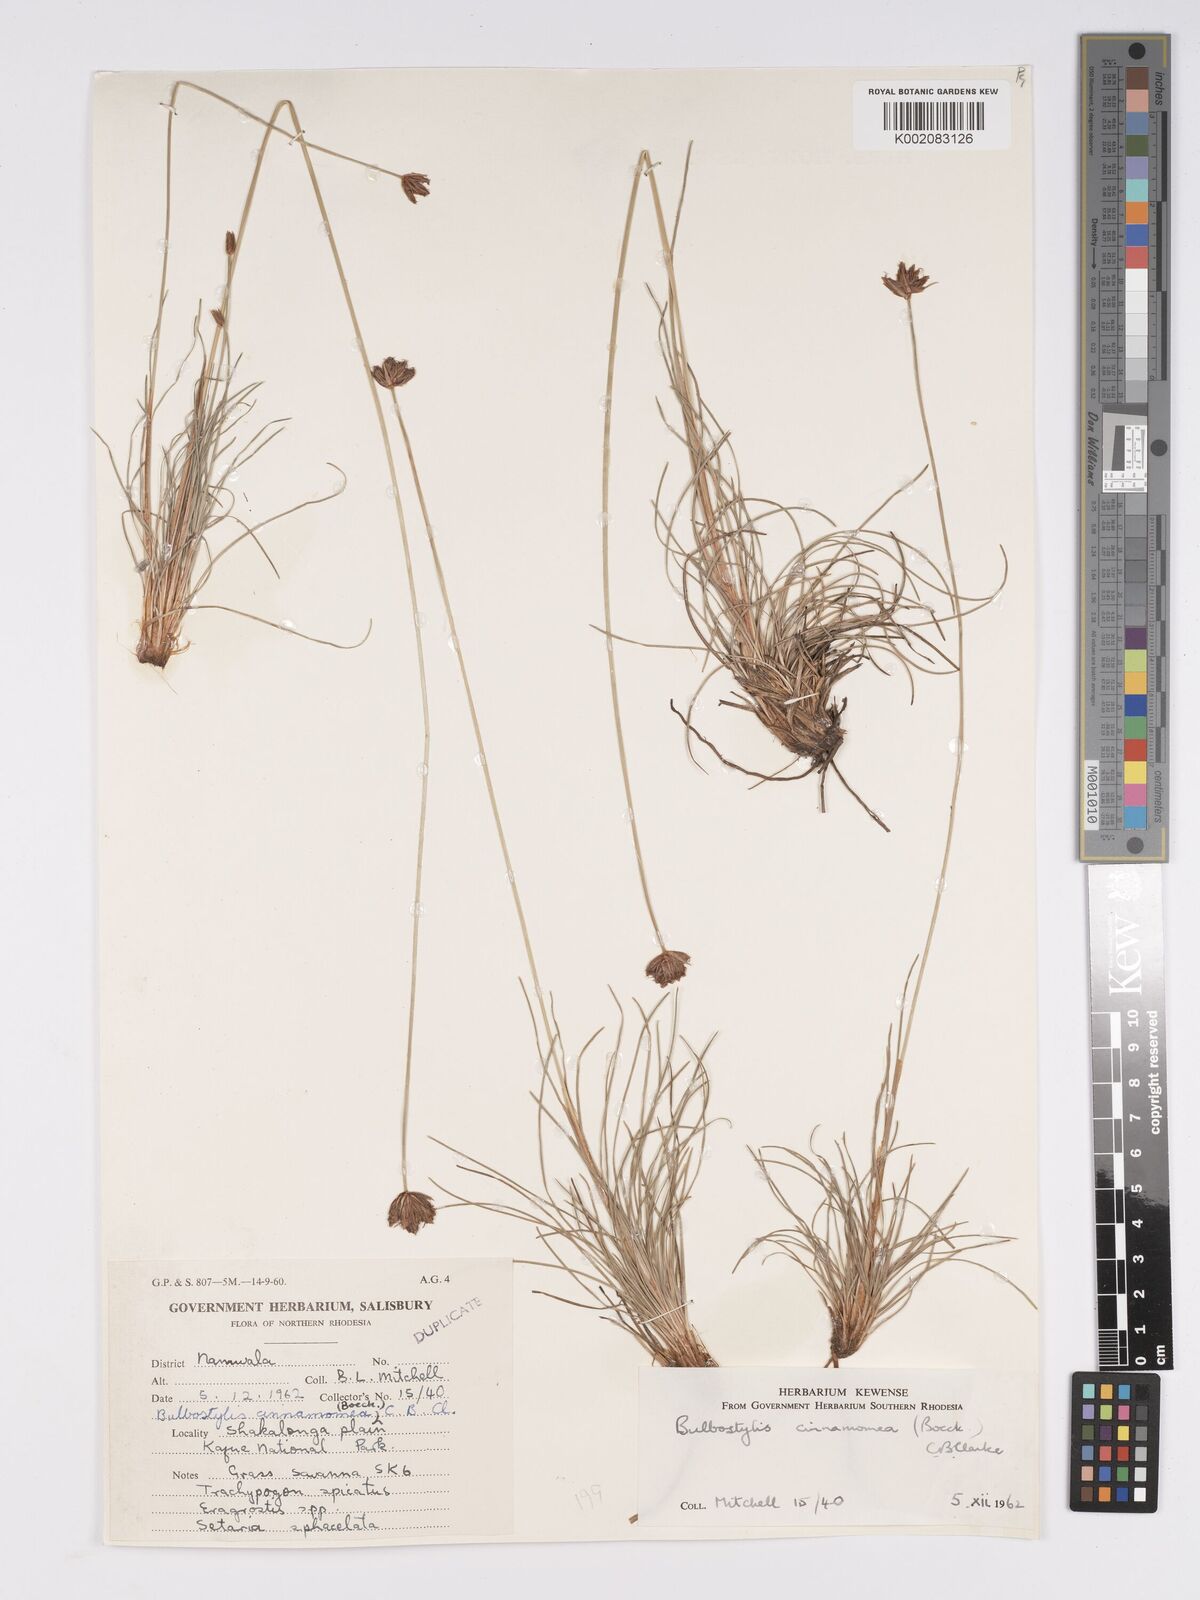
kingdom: Plantae
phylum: Tracheophyta
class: Liliopsida
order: Poales
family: Cyperaceae
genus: Bulbostylis
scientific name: Bulbostylis schoenoides
